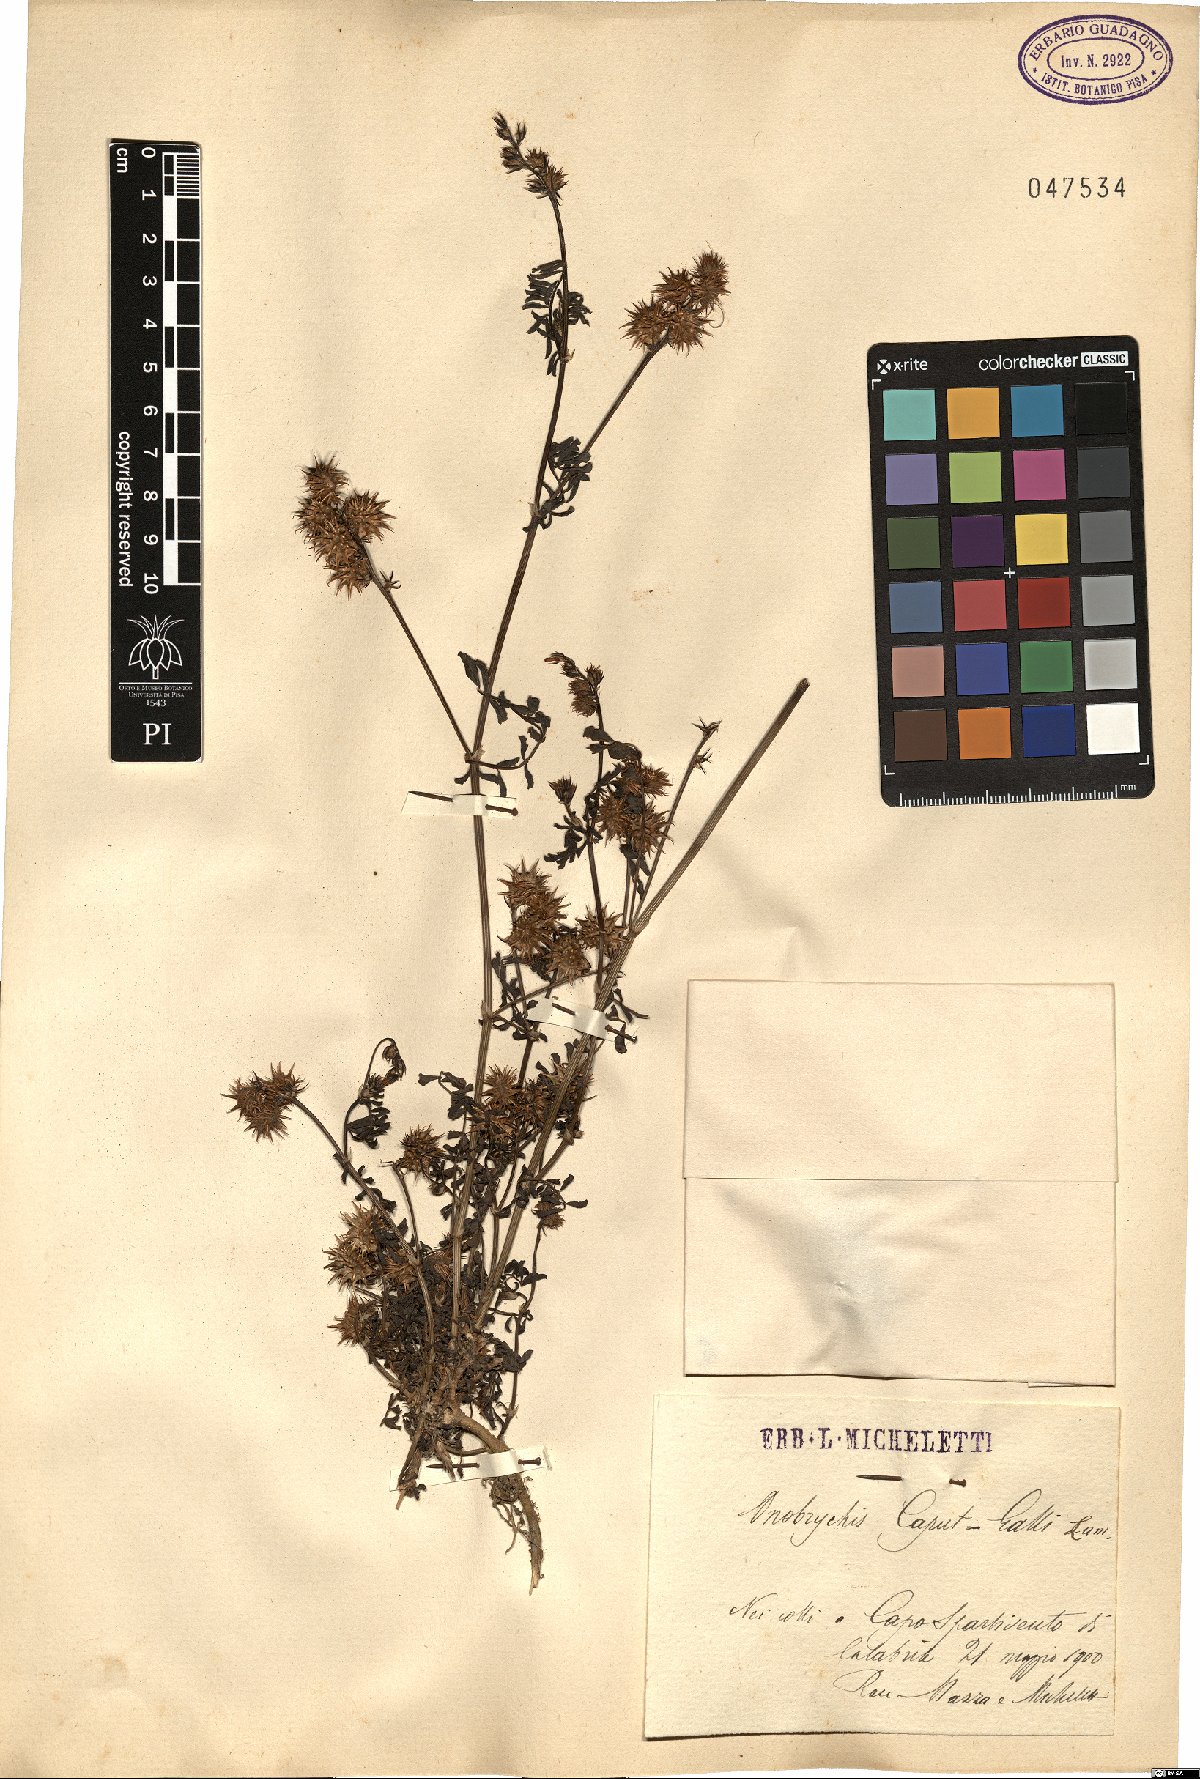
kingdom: Plantae
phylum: Tracheophyta
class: Magnoliopsida
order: Fabales
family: Fabaceae
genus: Onobrychis
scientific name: Onobrychis caput-galli
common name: Cockscomb sainfoin
